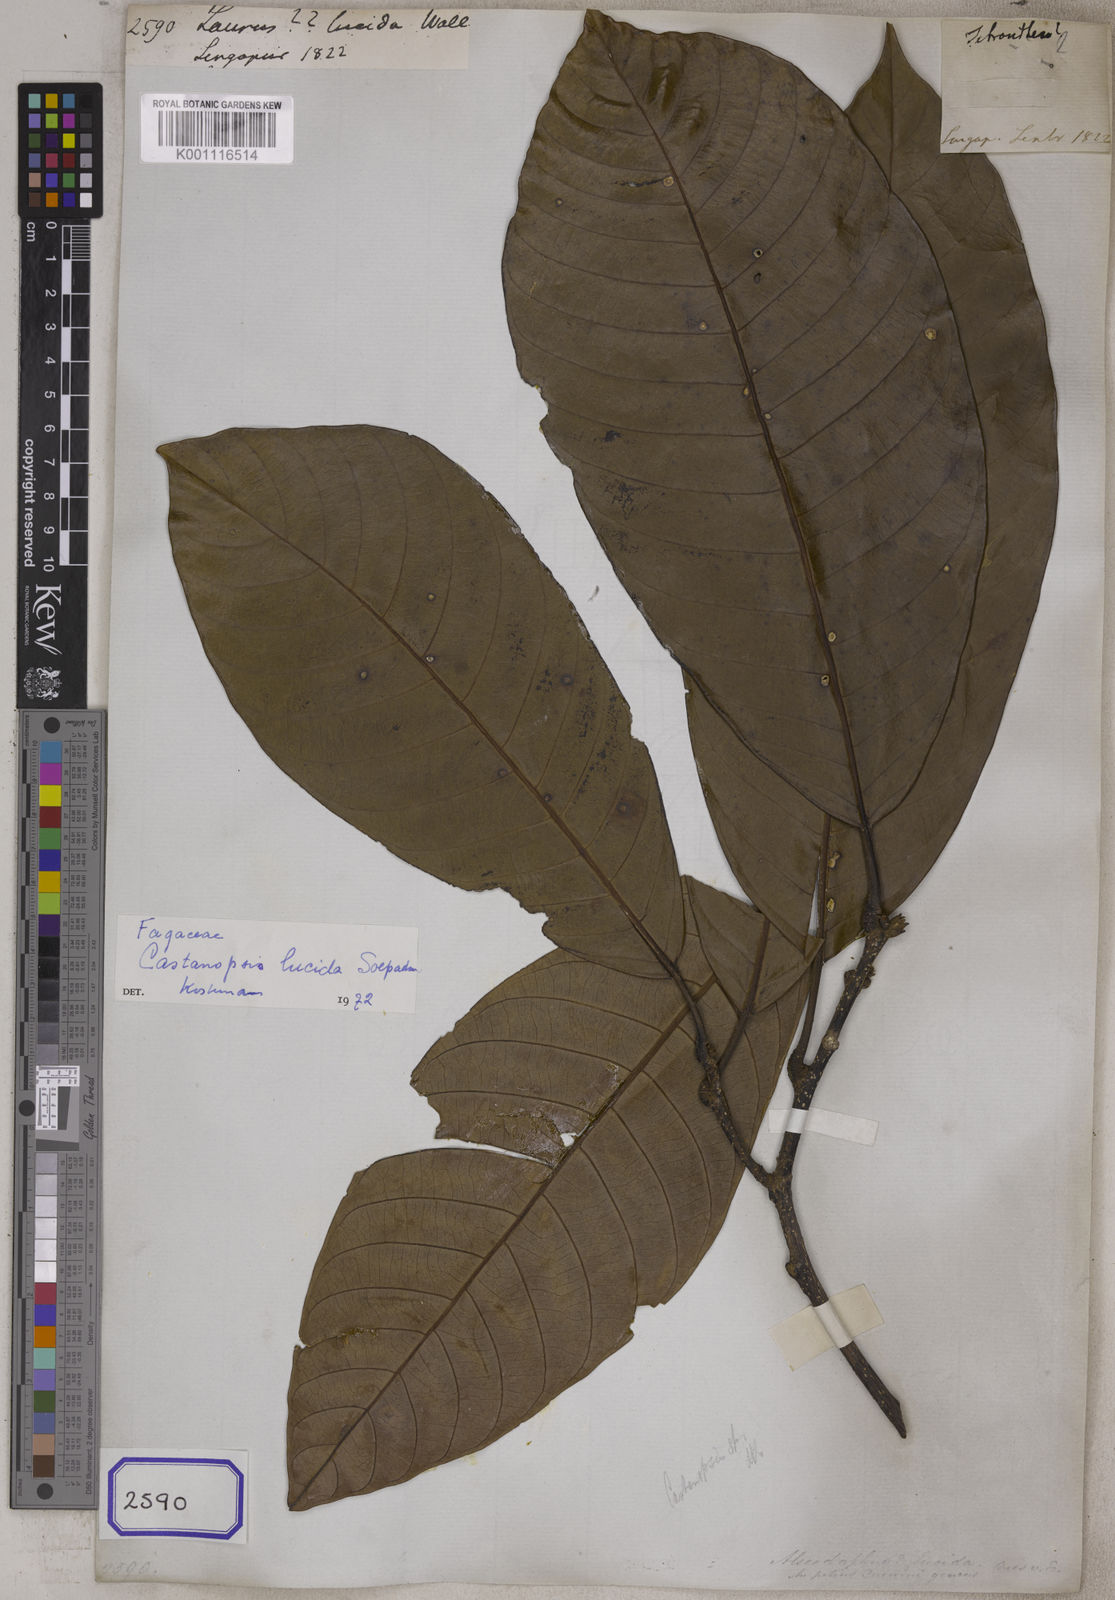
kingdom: Plantae
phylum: Tracheophyta
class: Magnoliopsida
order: Fagales
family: Fagaceae
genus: Castanopsis
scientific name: Castanopsis lucida
